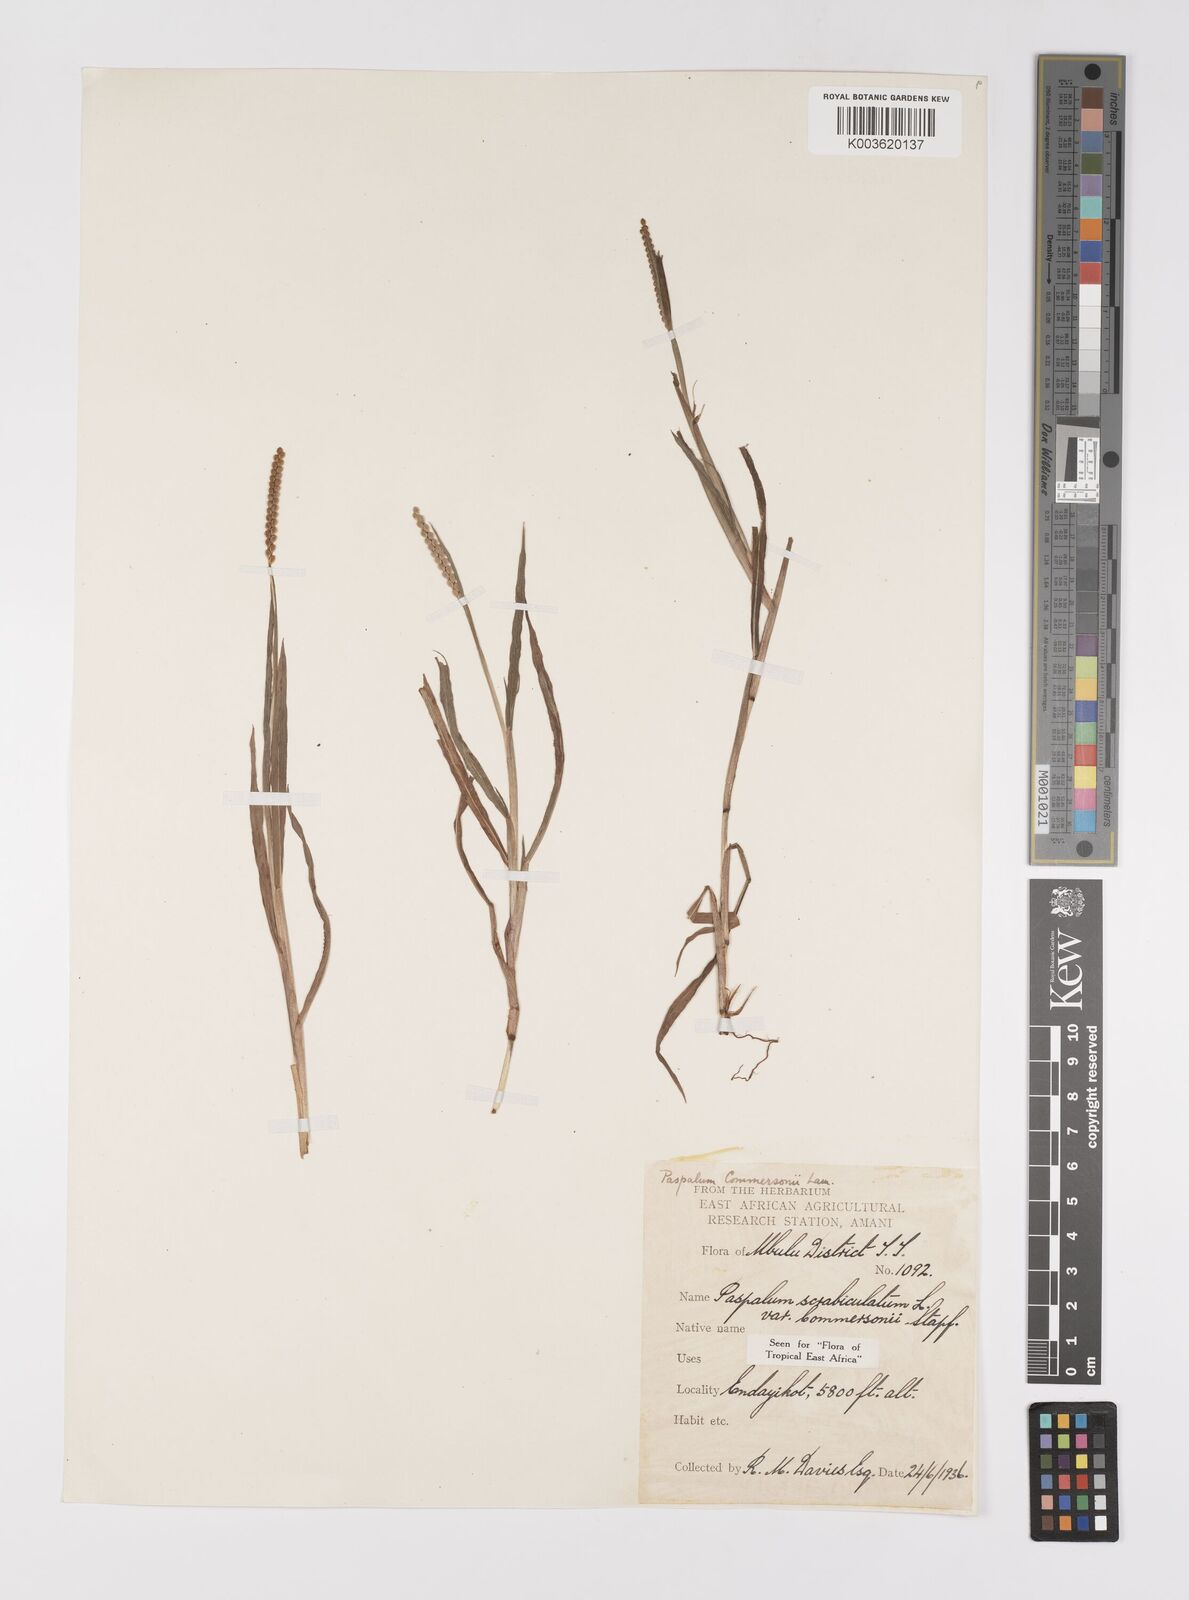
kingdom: Plantae
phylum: Tracheophyta
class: Liliopsida
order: Poales
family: Poaceae
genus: Paspalum
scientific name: Paspalum scrobiculatum
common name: Kodo millet
